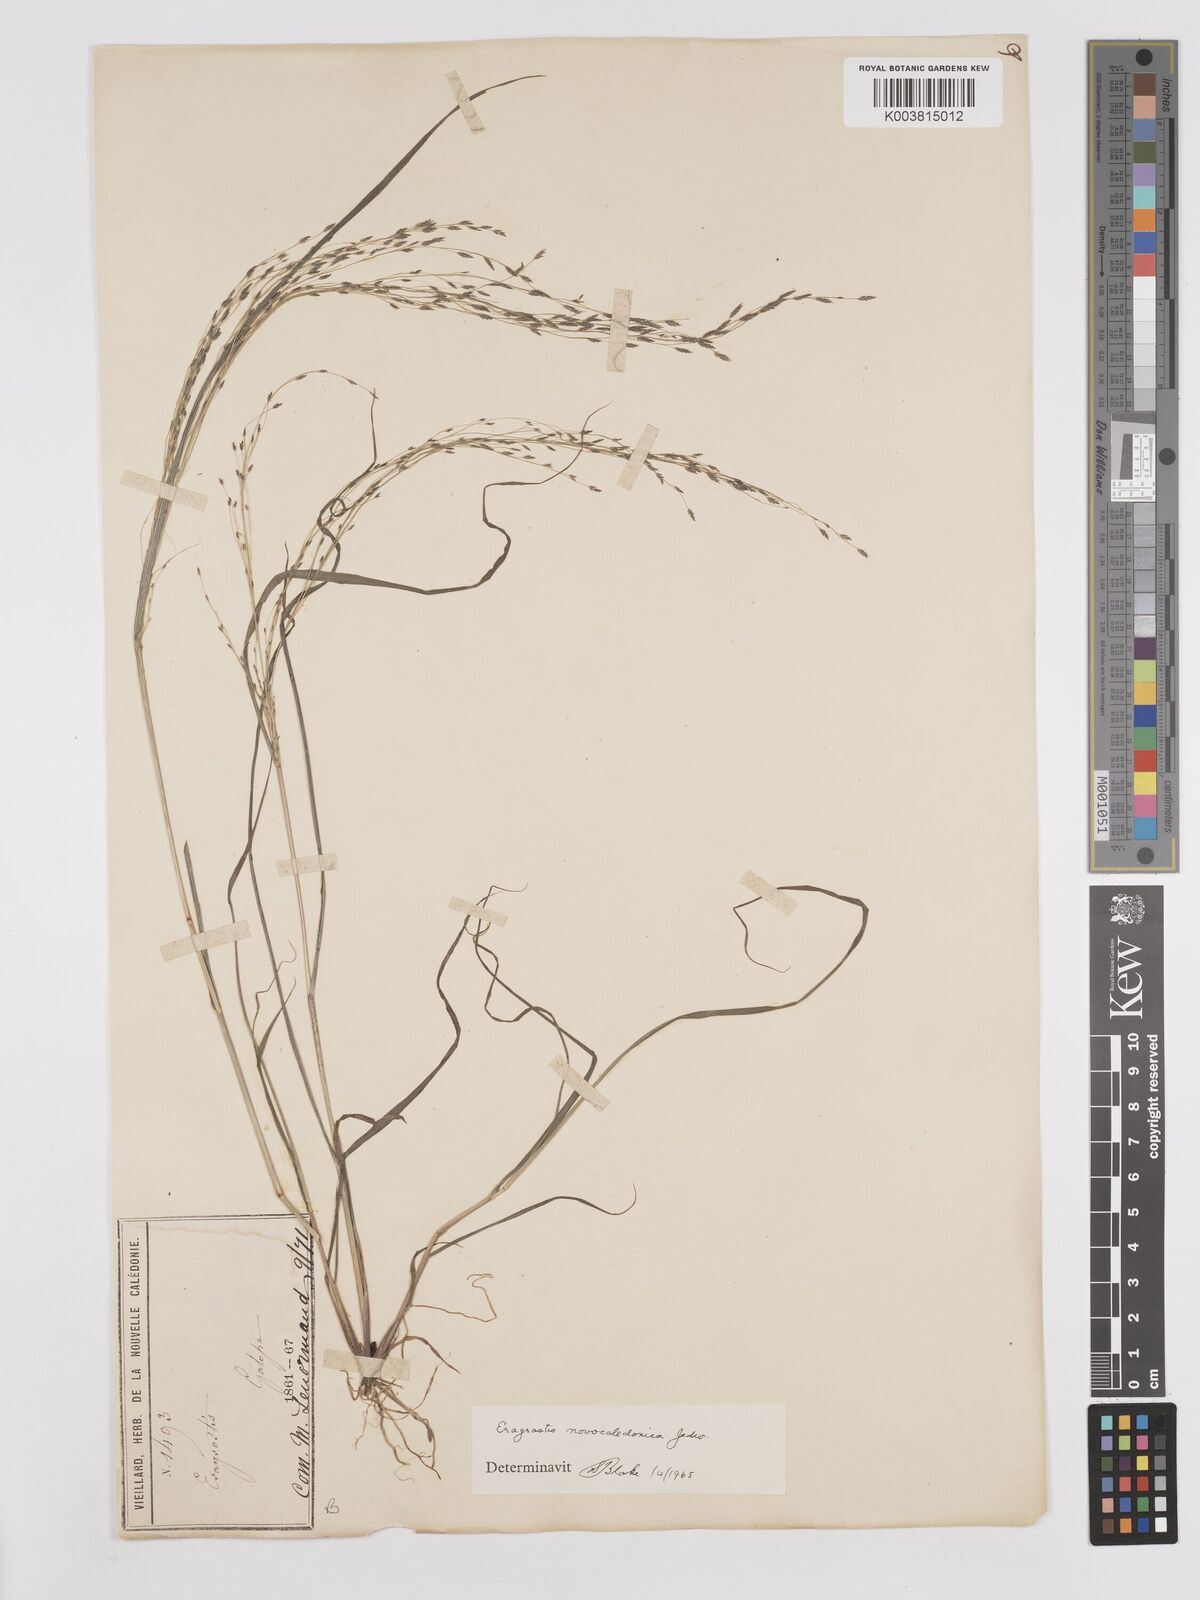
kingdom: Plantae
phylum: Tracheophyta
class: Liliopsida
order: Poales
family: Poaceae
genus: Eragrostis
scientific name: Eragrostis parviflora
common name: Weeping love-grass
